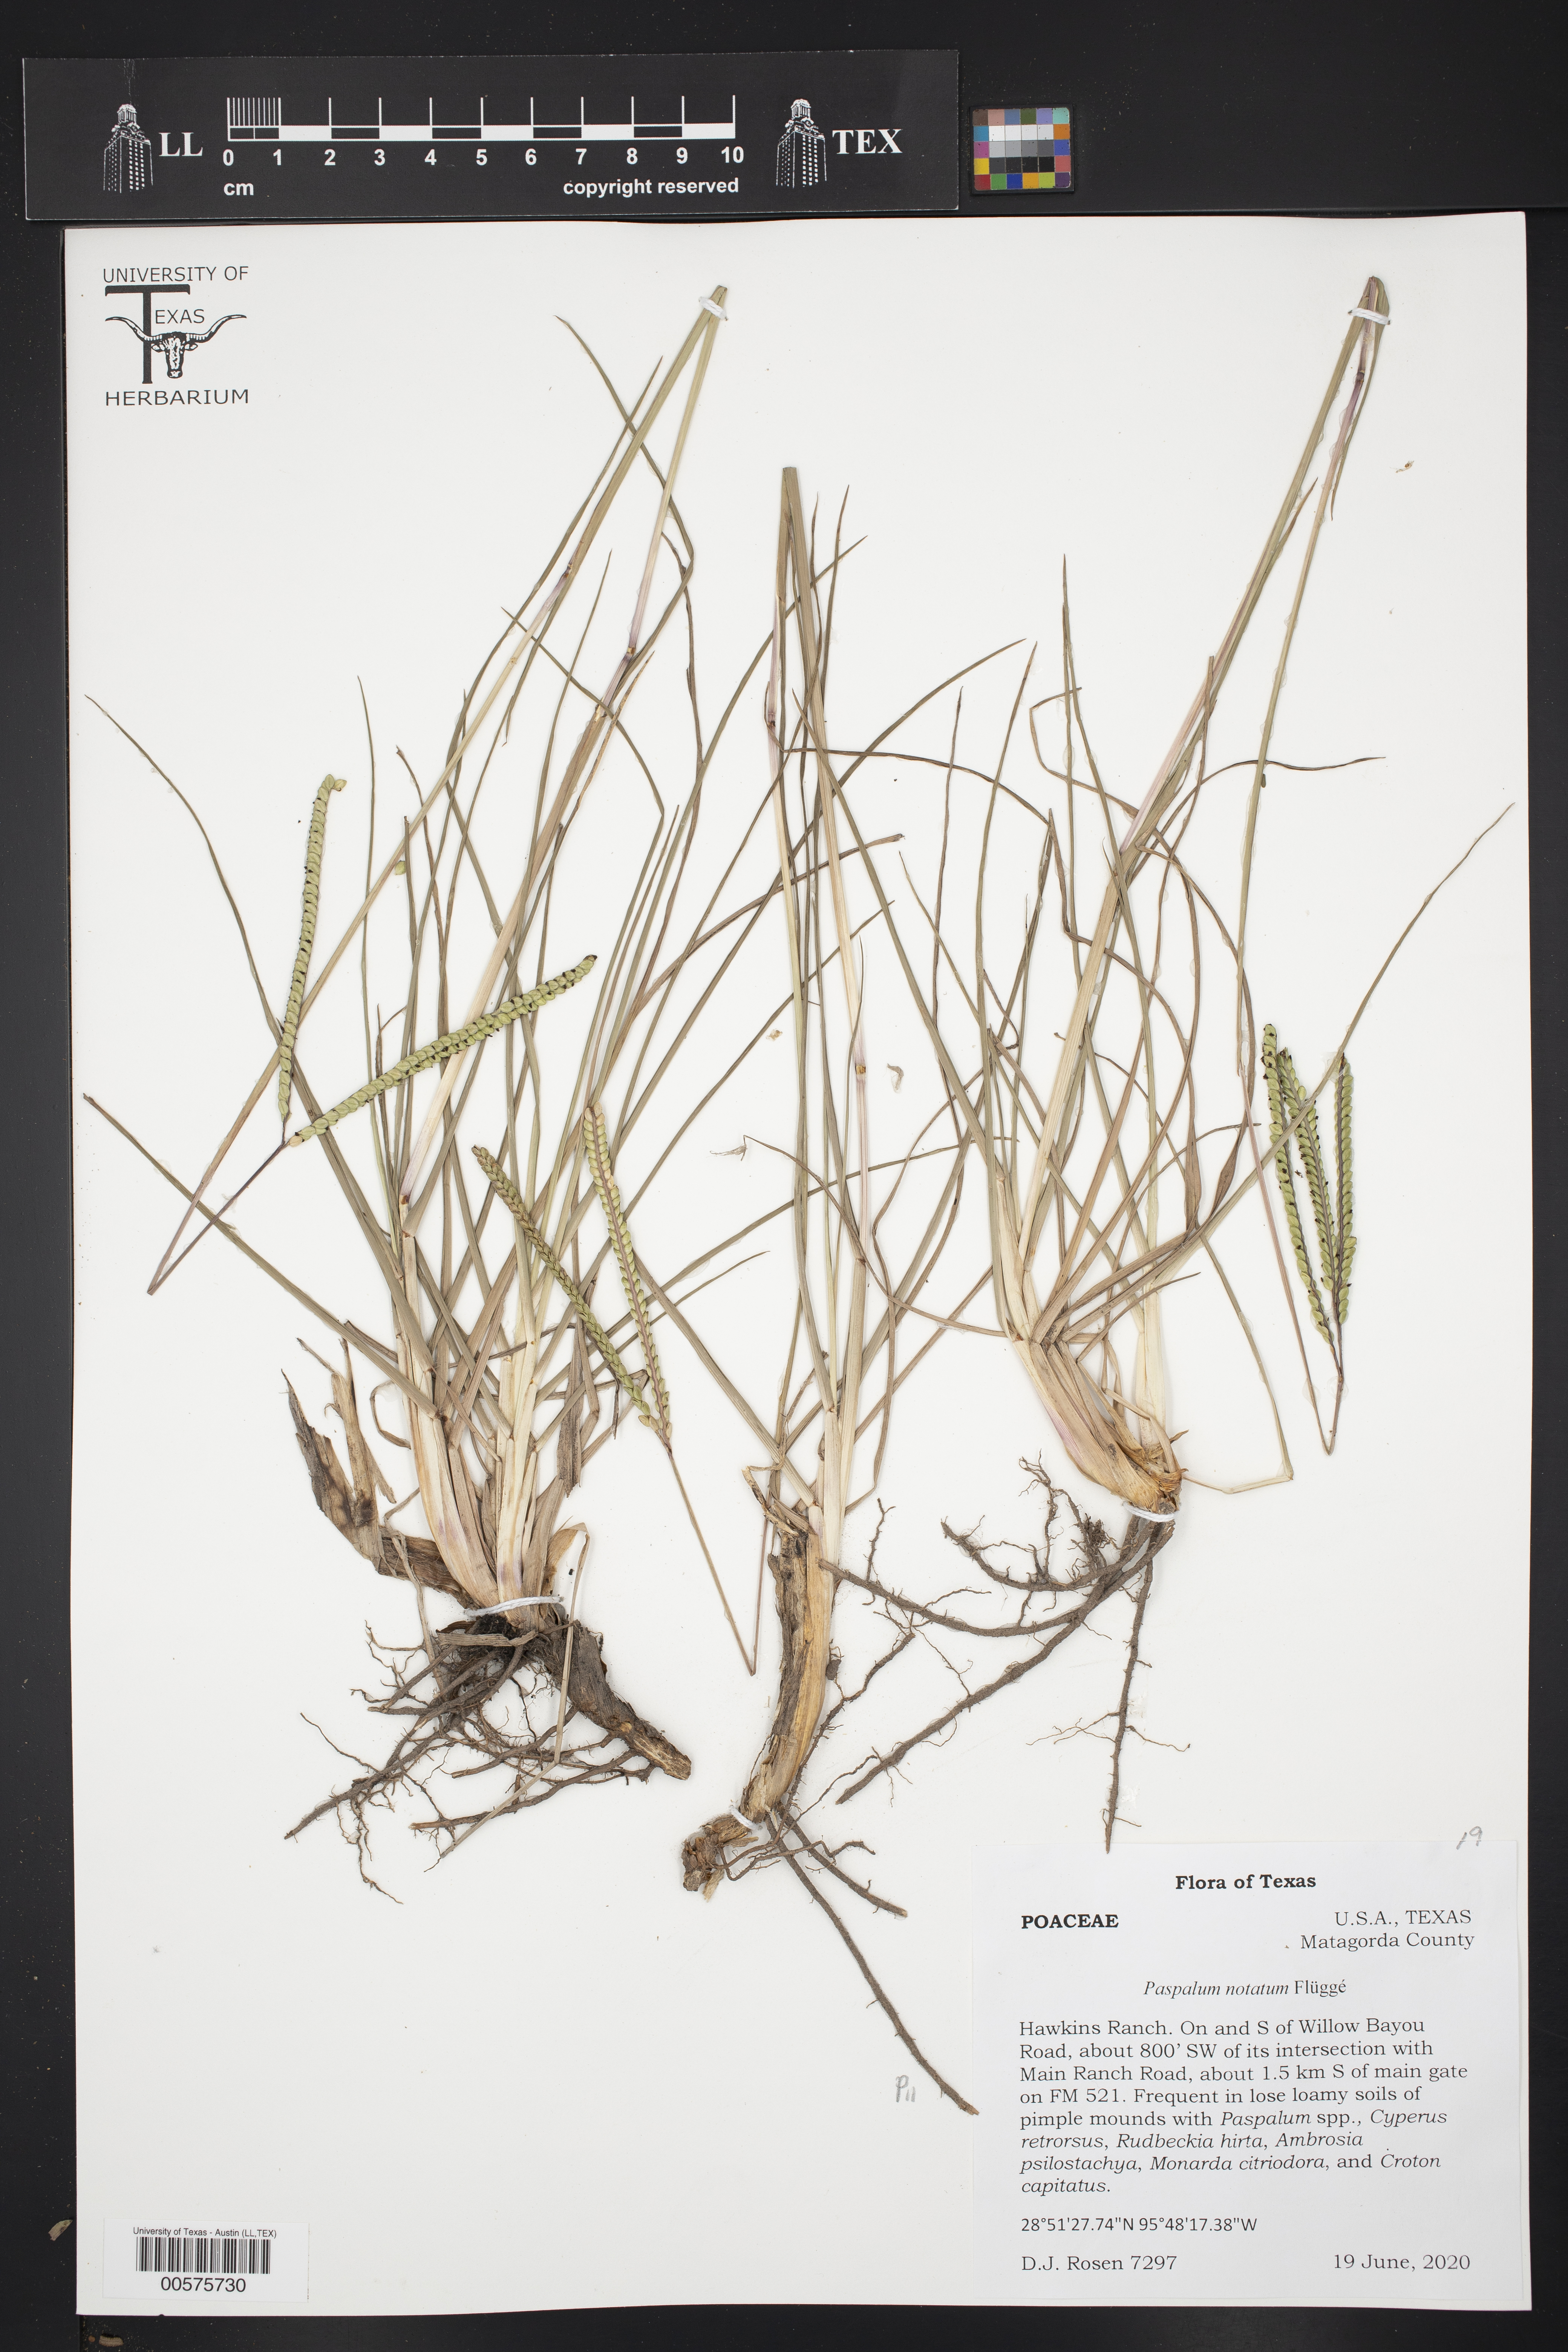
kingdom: Plantae
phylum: Tracheophyta
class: Liliopsida
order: Poales
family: Poaceae
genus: Paspalum
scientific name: Paspalum notatum
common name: Bahiagrass
